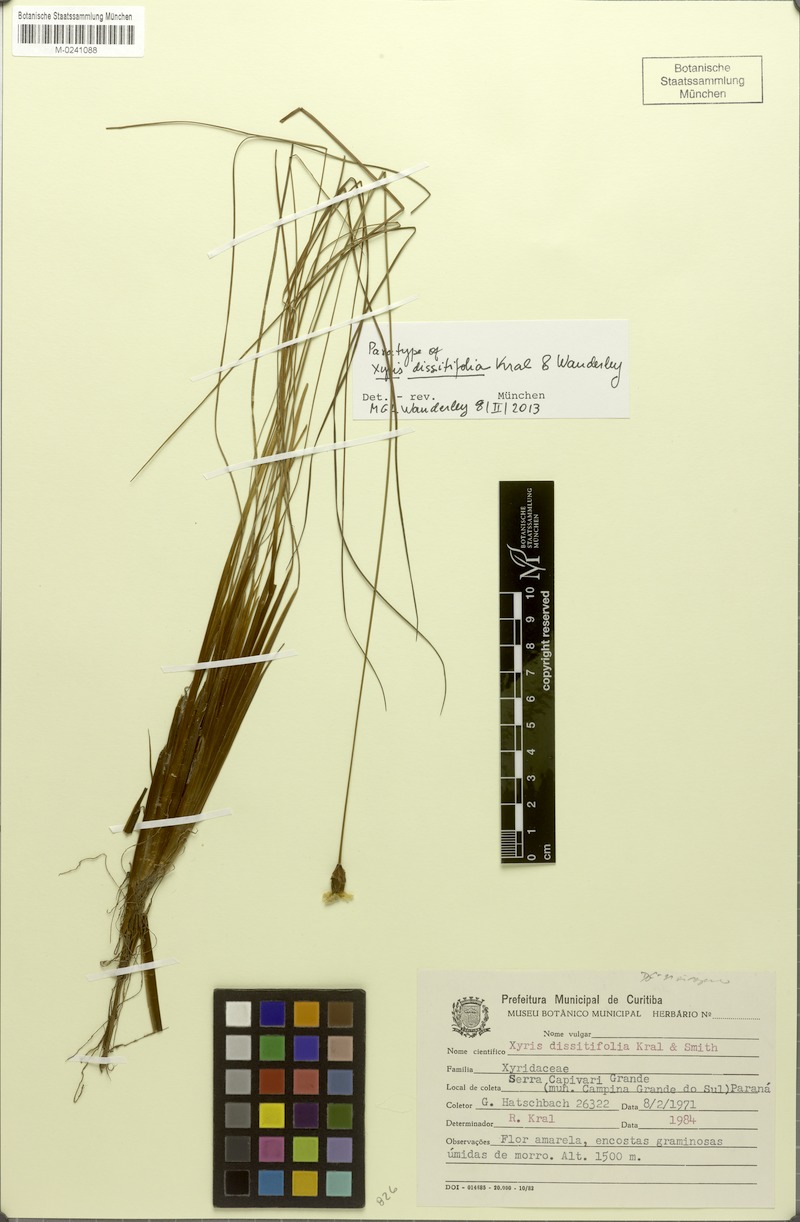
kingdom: Plantae
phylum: Tracheophyta
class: Liliopsida
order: Poales
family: Xyridaceae
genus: Xyris
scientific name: Xyris dissitifolia
